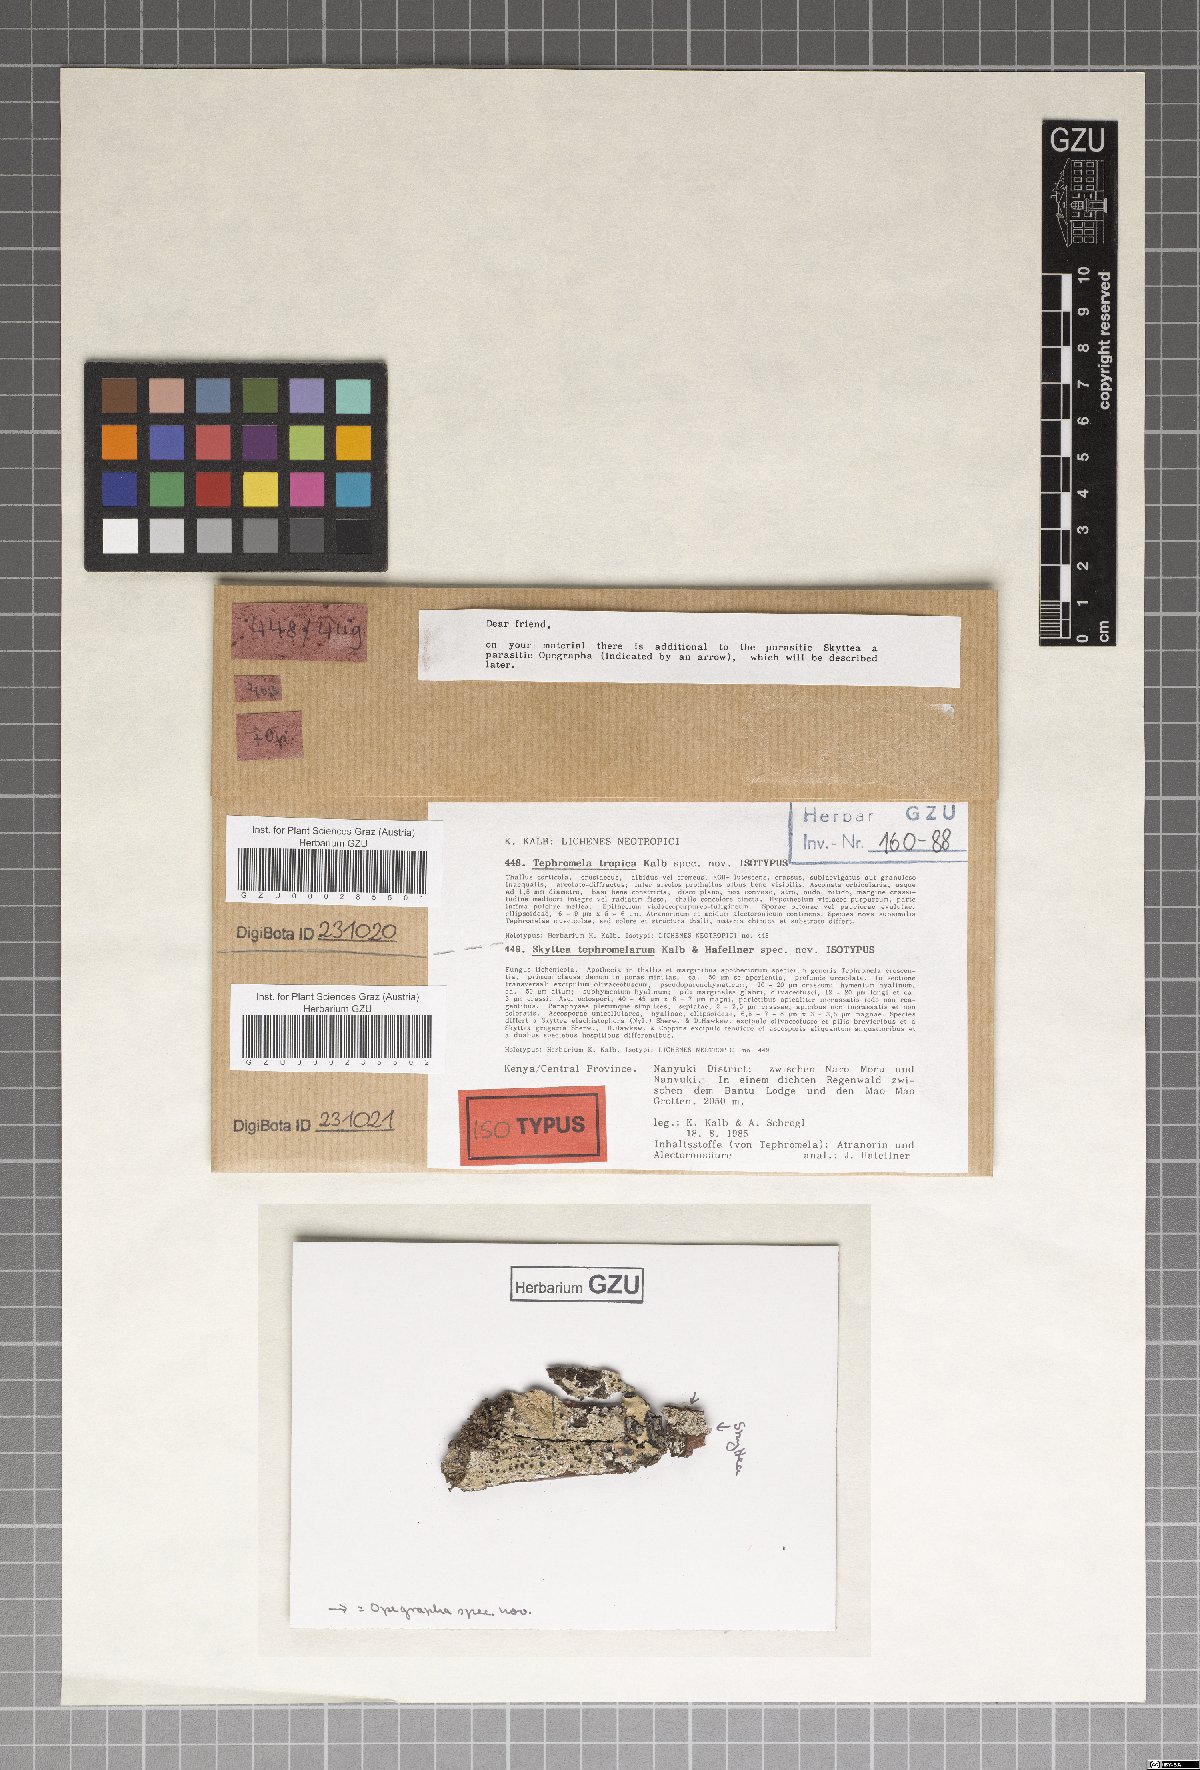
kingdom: Fungi
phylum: Ascomycota
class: Leotiomycetes
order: Helotiales
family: Cordieritidaceae
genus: Skyttea
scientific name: Skyttea elachistophora
